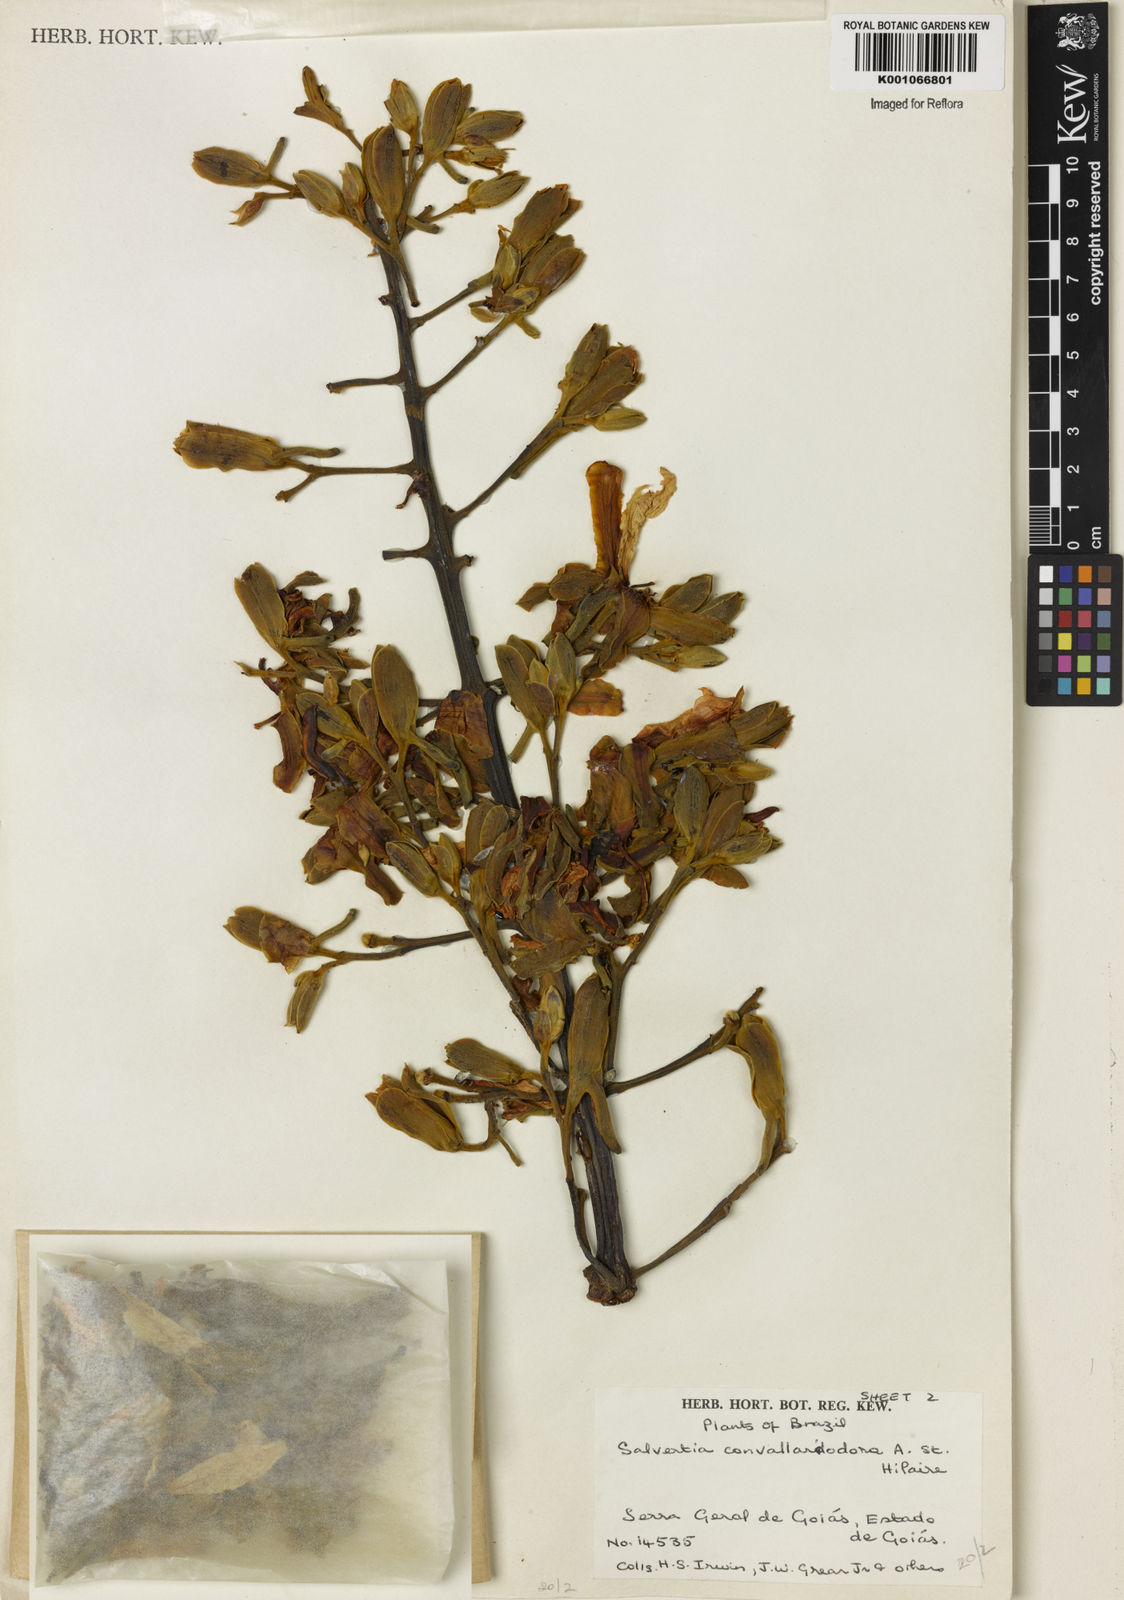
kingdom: Plantae
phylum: Tracheophyta
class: Magnoliopsida
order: Myrtales
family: Vochysiaceae
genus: Salvertia
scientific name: Salvertia
